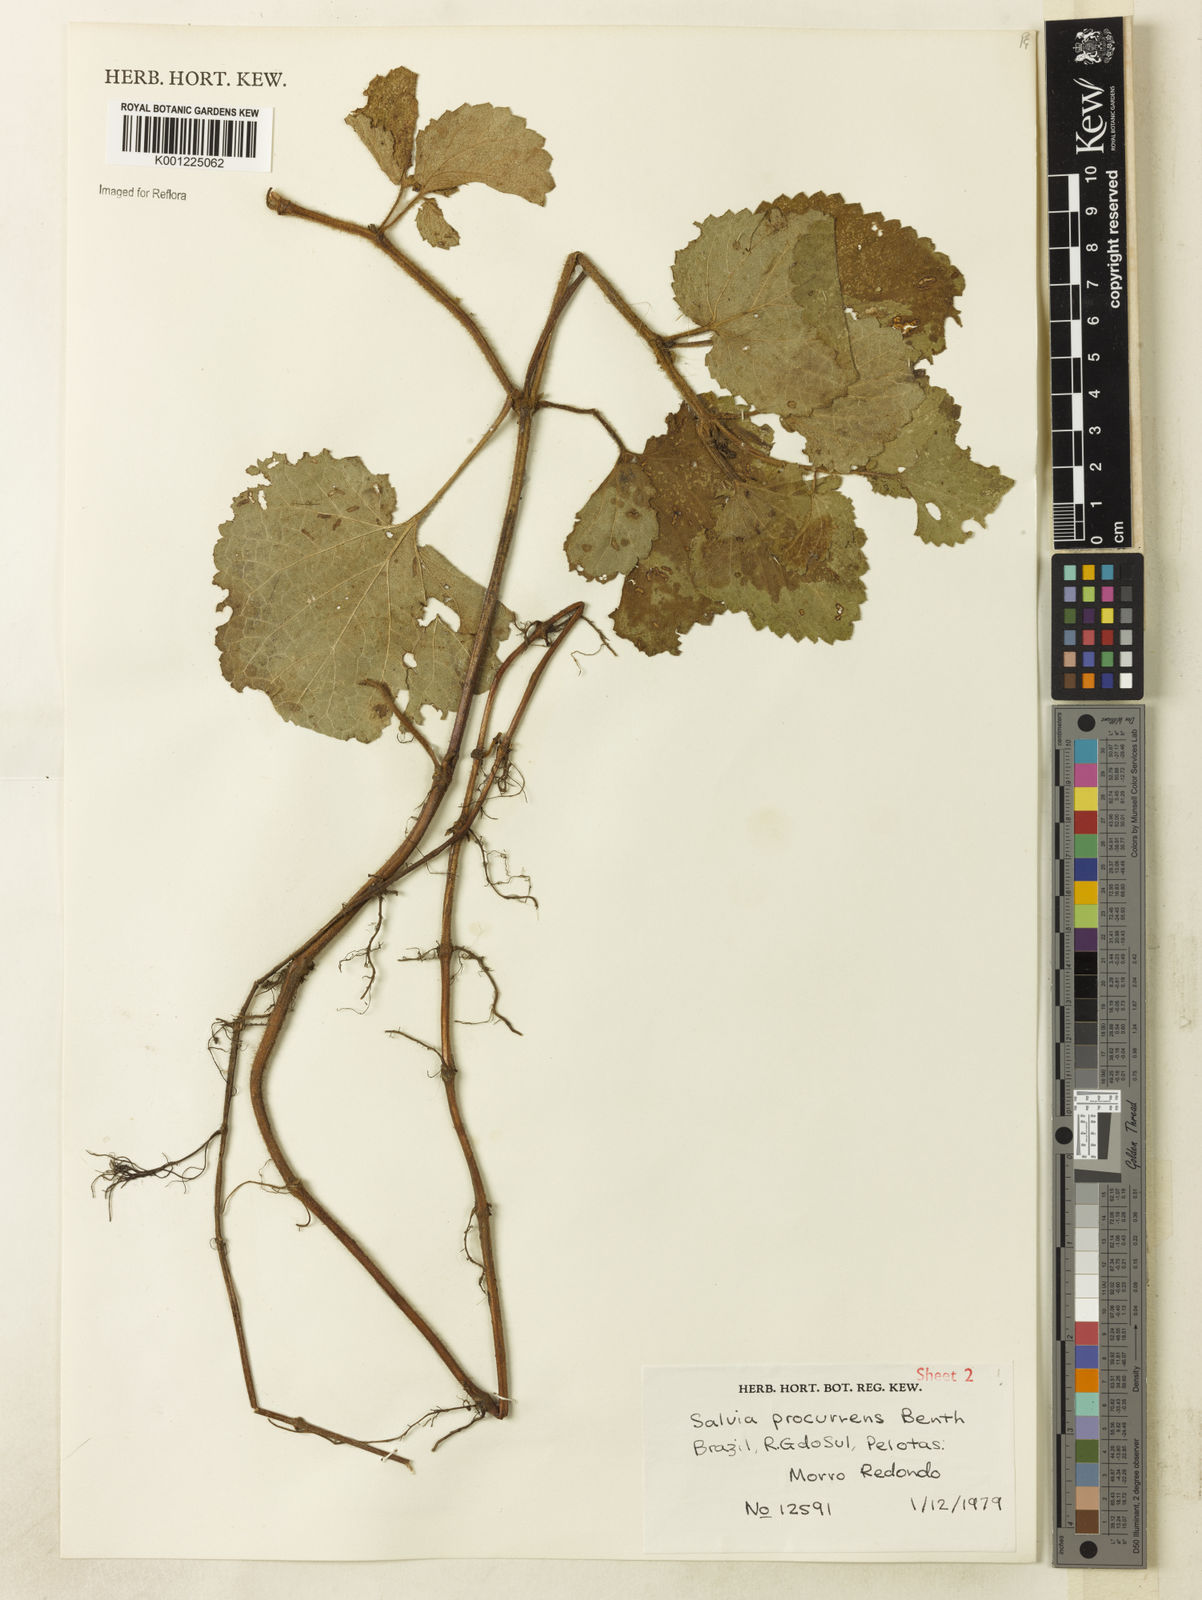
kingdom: Plantae
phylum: Tracheophyta
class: Magnoliopsida
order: Lamiales
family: Lamiaceae
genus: Salvia
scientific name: Salvia procurrens
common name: Blue creeper
